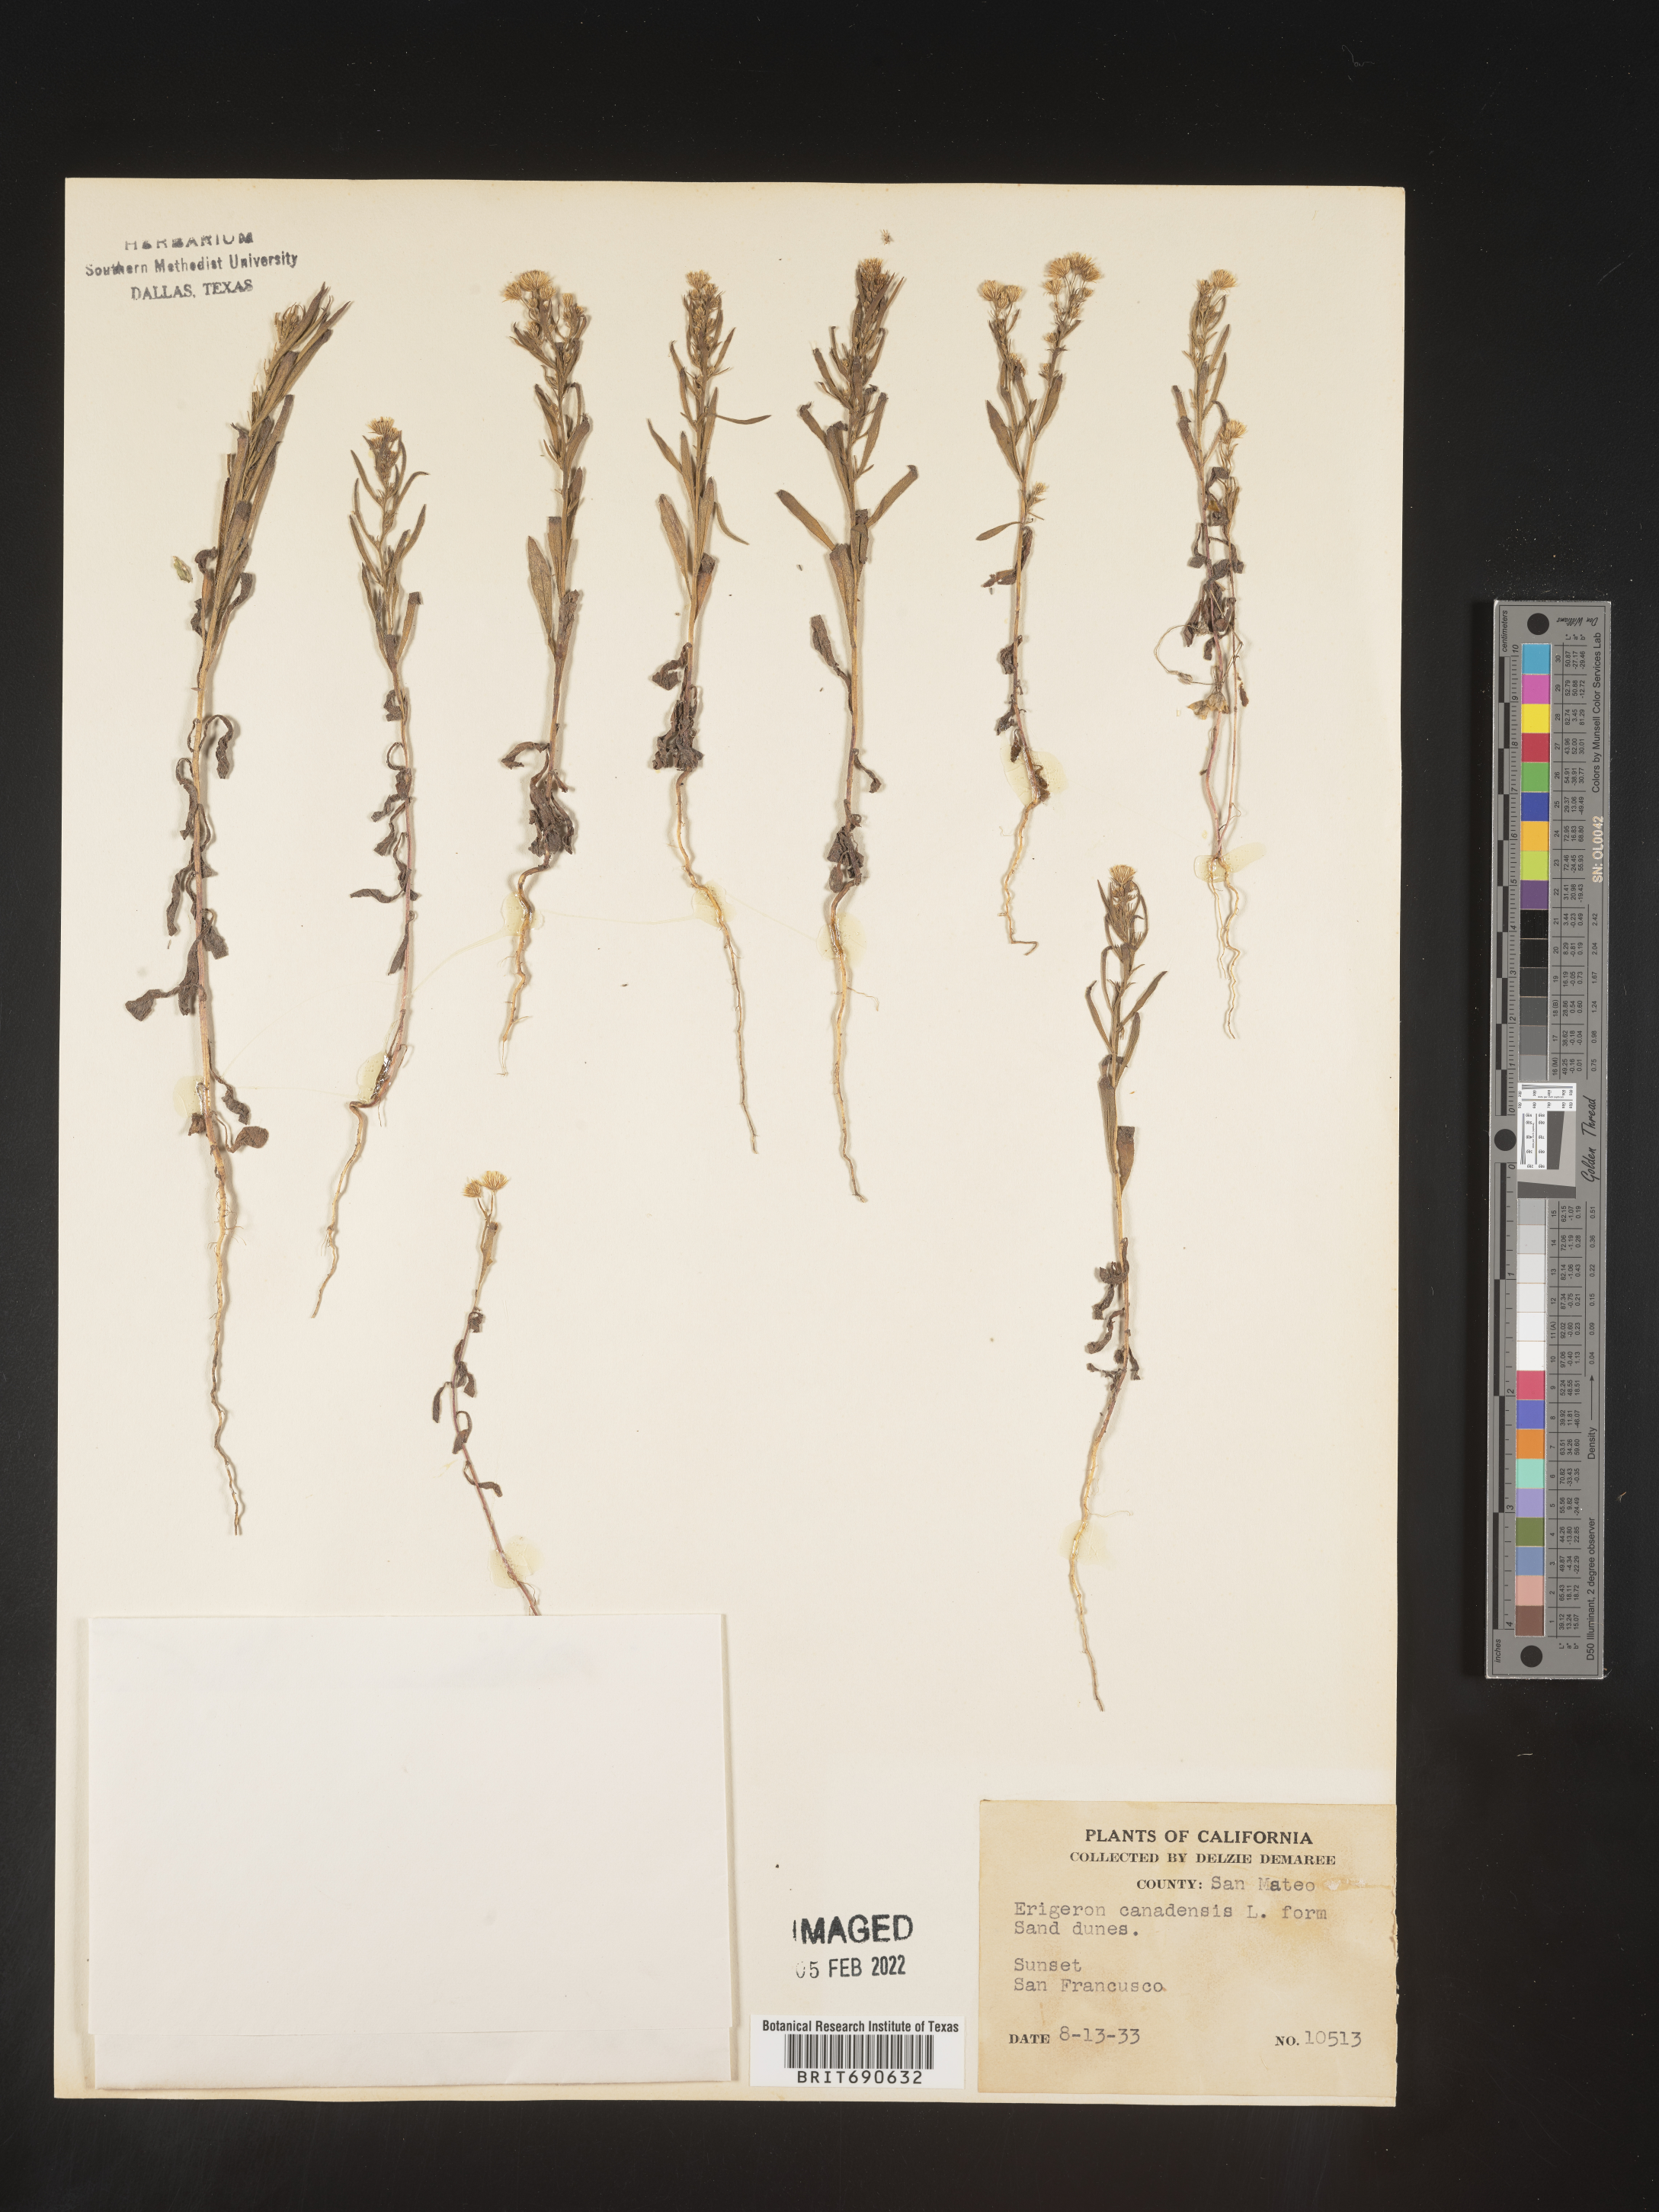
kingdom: Plantae
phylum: Tracheophyta
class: Magnoliopsida
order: Asterales
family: Asteraceae
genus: Erigeron
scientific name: Erigeron canadensis
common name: Canadian fleabane
